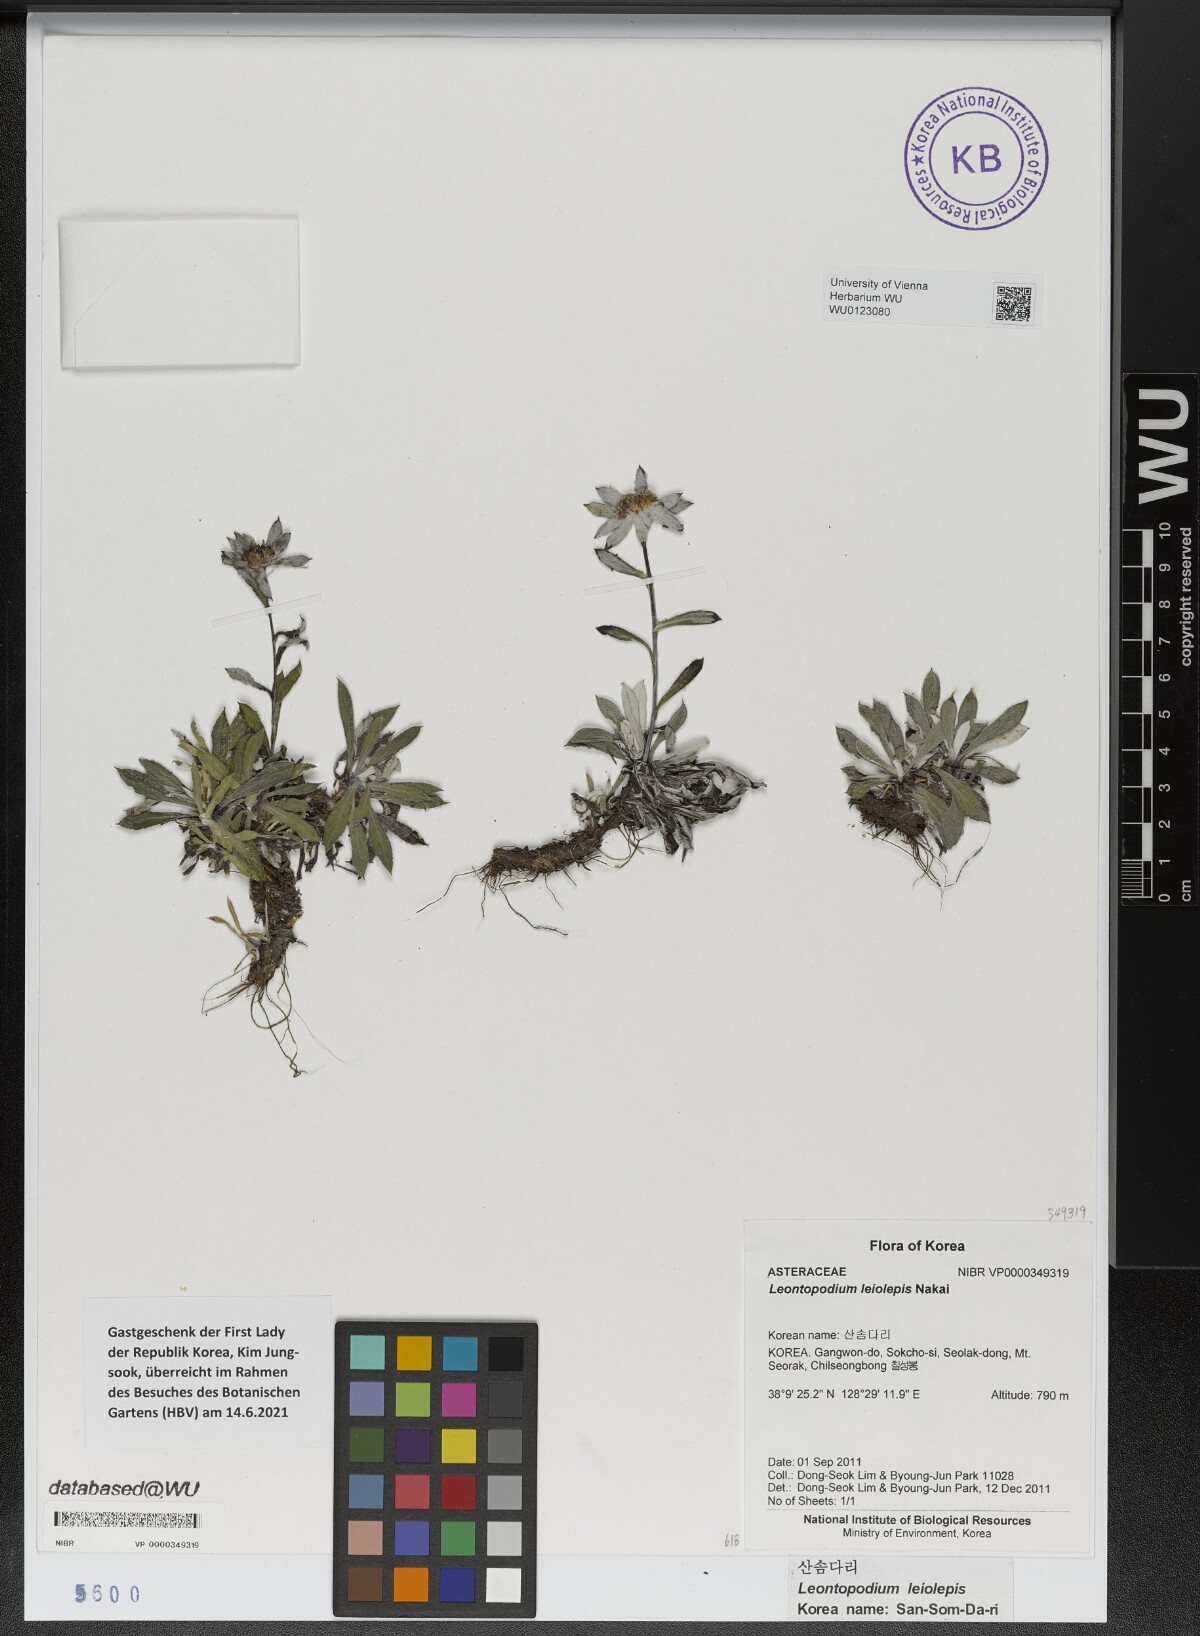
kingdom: Plantae
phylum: Tracheophyta
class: Magnoliopsida
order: Asterales
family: Asteraceae
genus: Leontopodium
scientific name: Leontopodium coreanum
